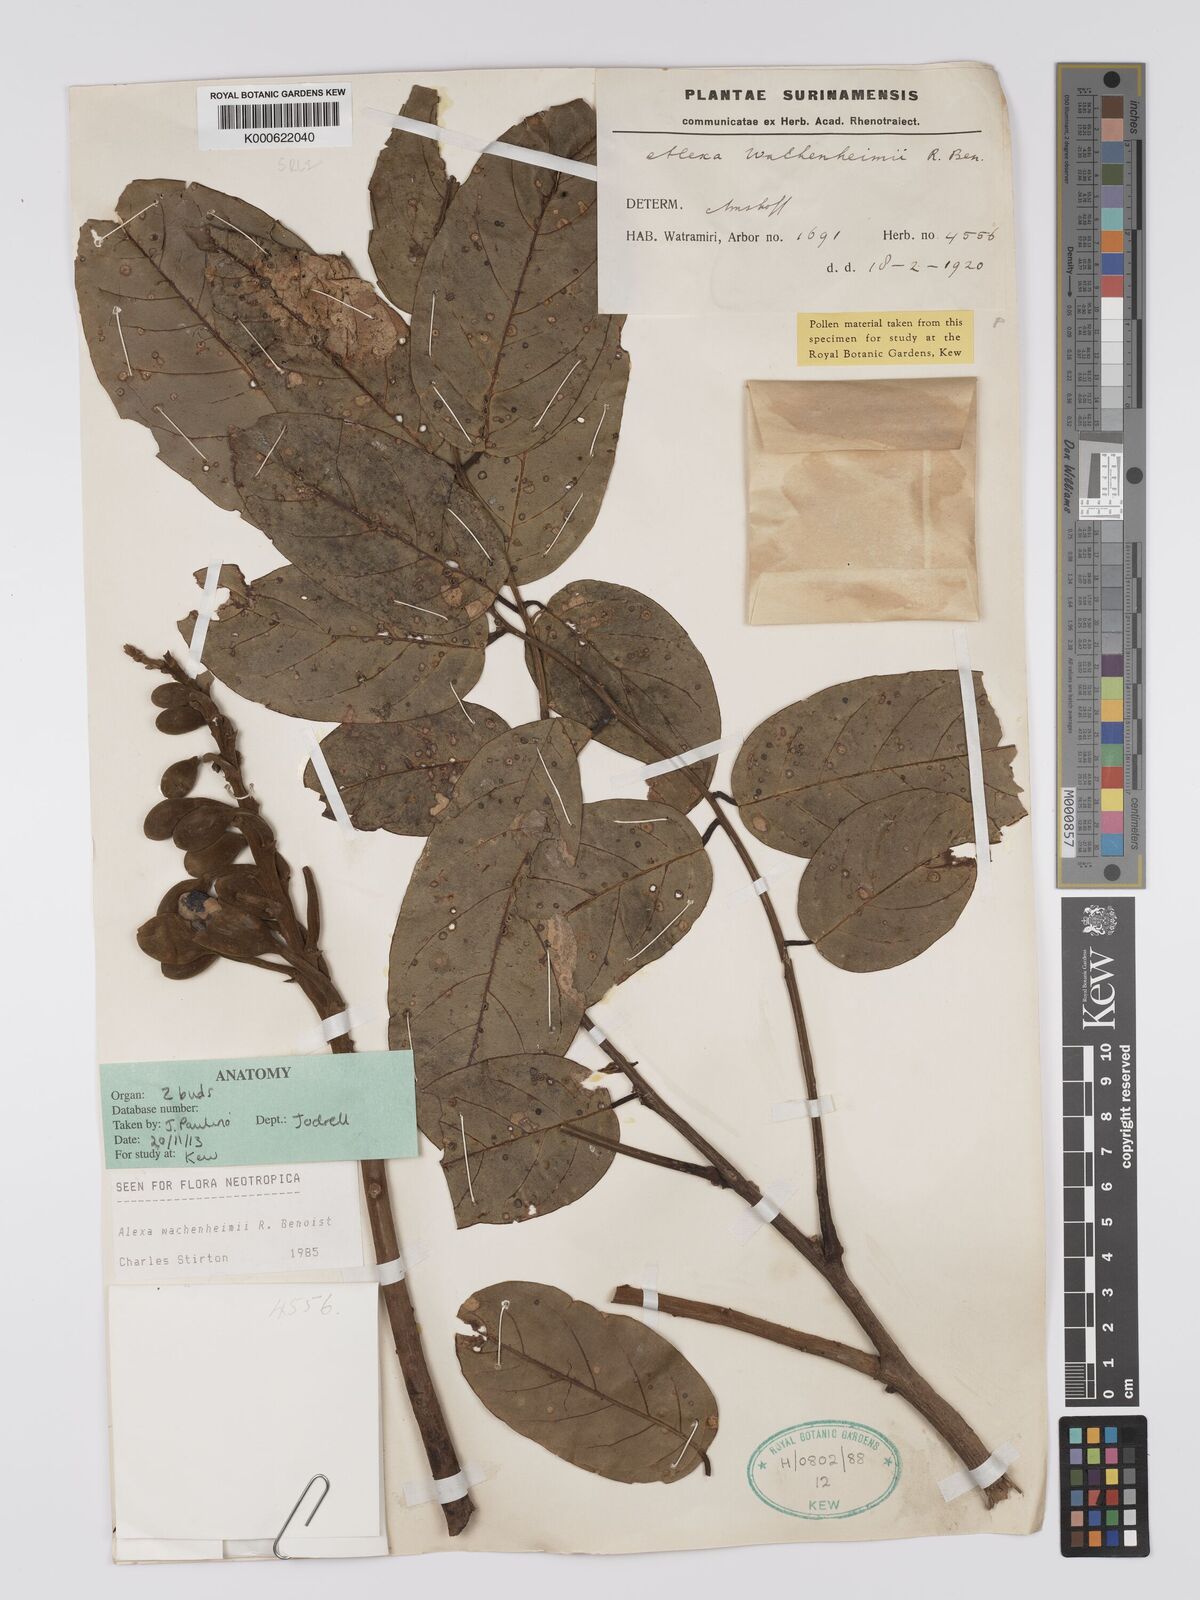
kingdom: Plantae
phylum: Tracheophyta
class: Magnoliopsida
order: Fabales
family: Fabaceae
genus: Alexa
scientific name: Alexa wachenheimii
